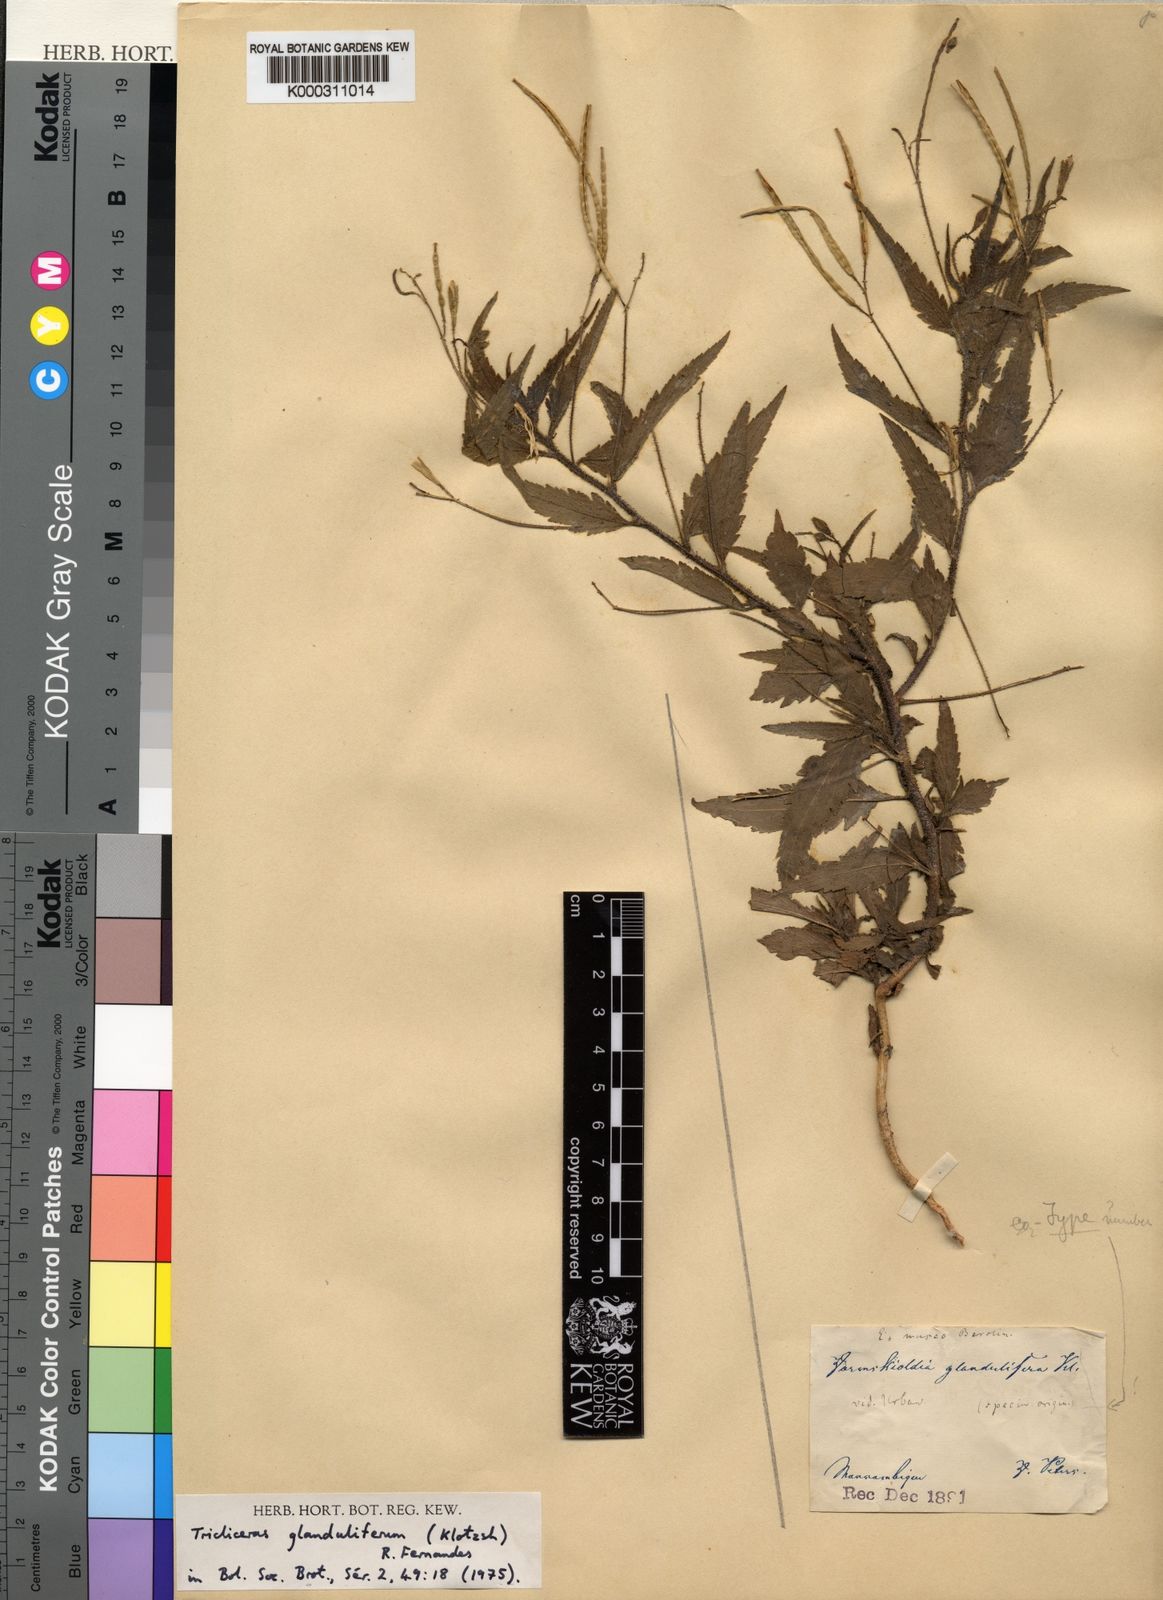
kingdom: Plantae
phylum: Tracheophyta
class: Magnoliopsida
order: Malpighiales
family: Turneraceae
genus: Tricliceras
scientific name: Tricliceras glanduliferum
